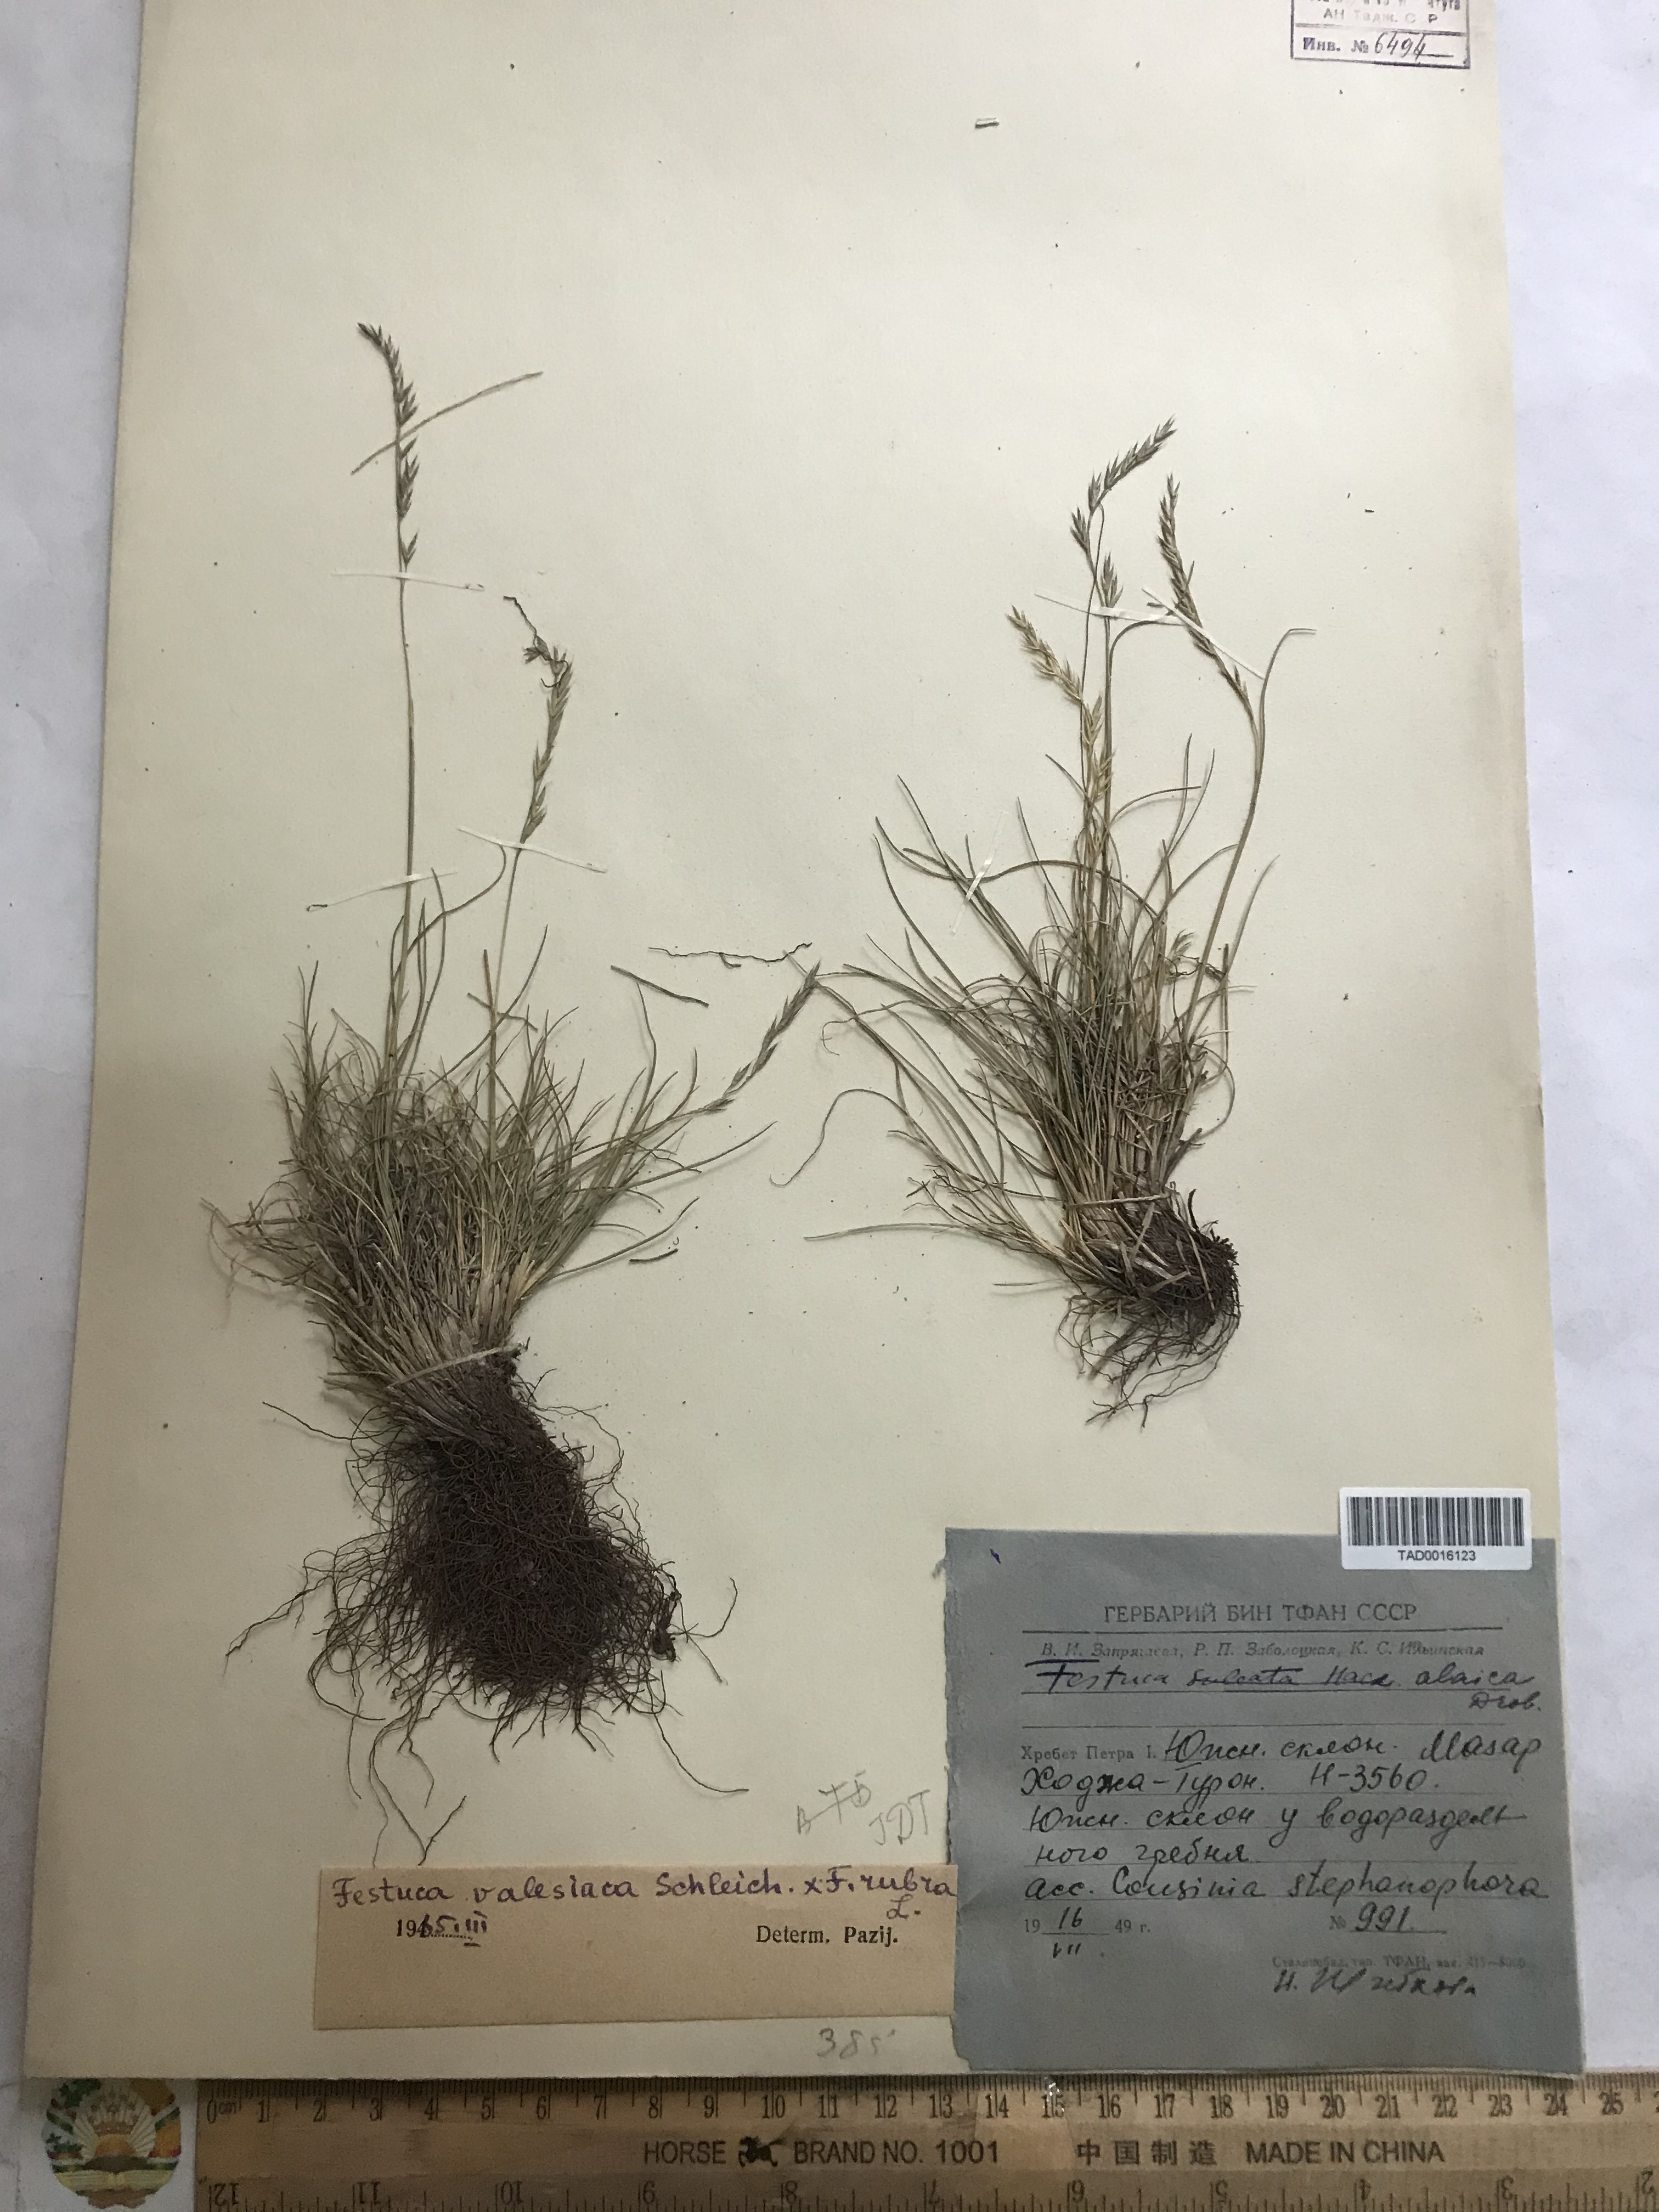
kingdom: Plantae
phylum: Tracheophyta
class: Liliopsida
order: Poales
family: Poaceae
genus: Festuca
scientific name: Festuca valesiaca
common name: Volga fescue
